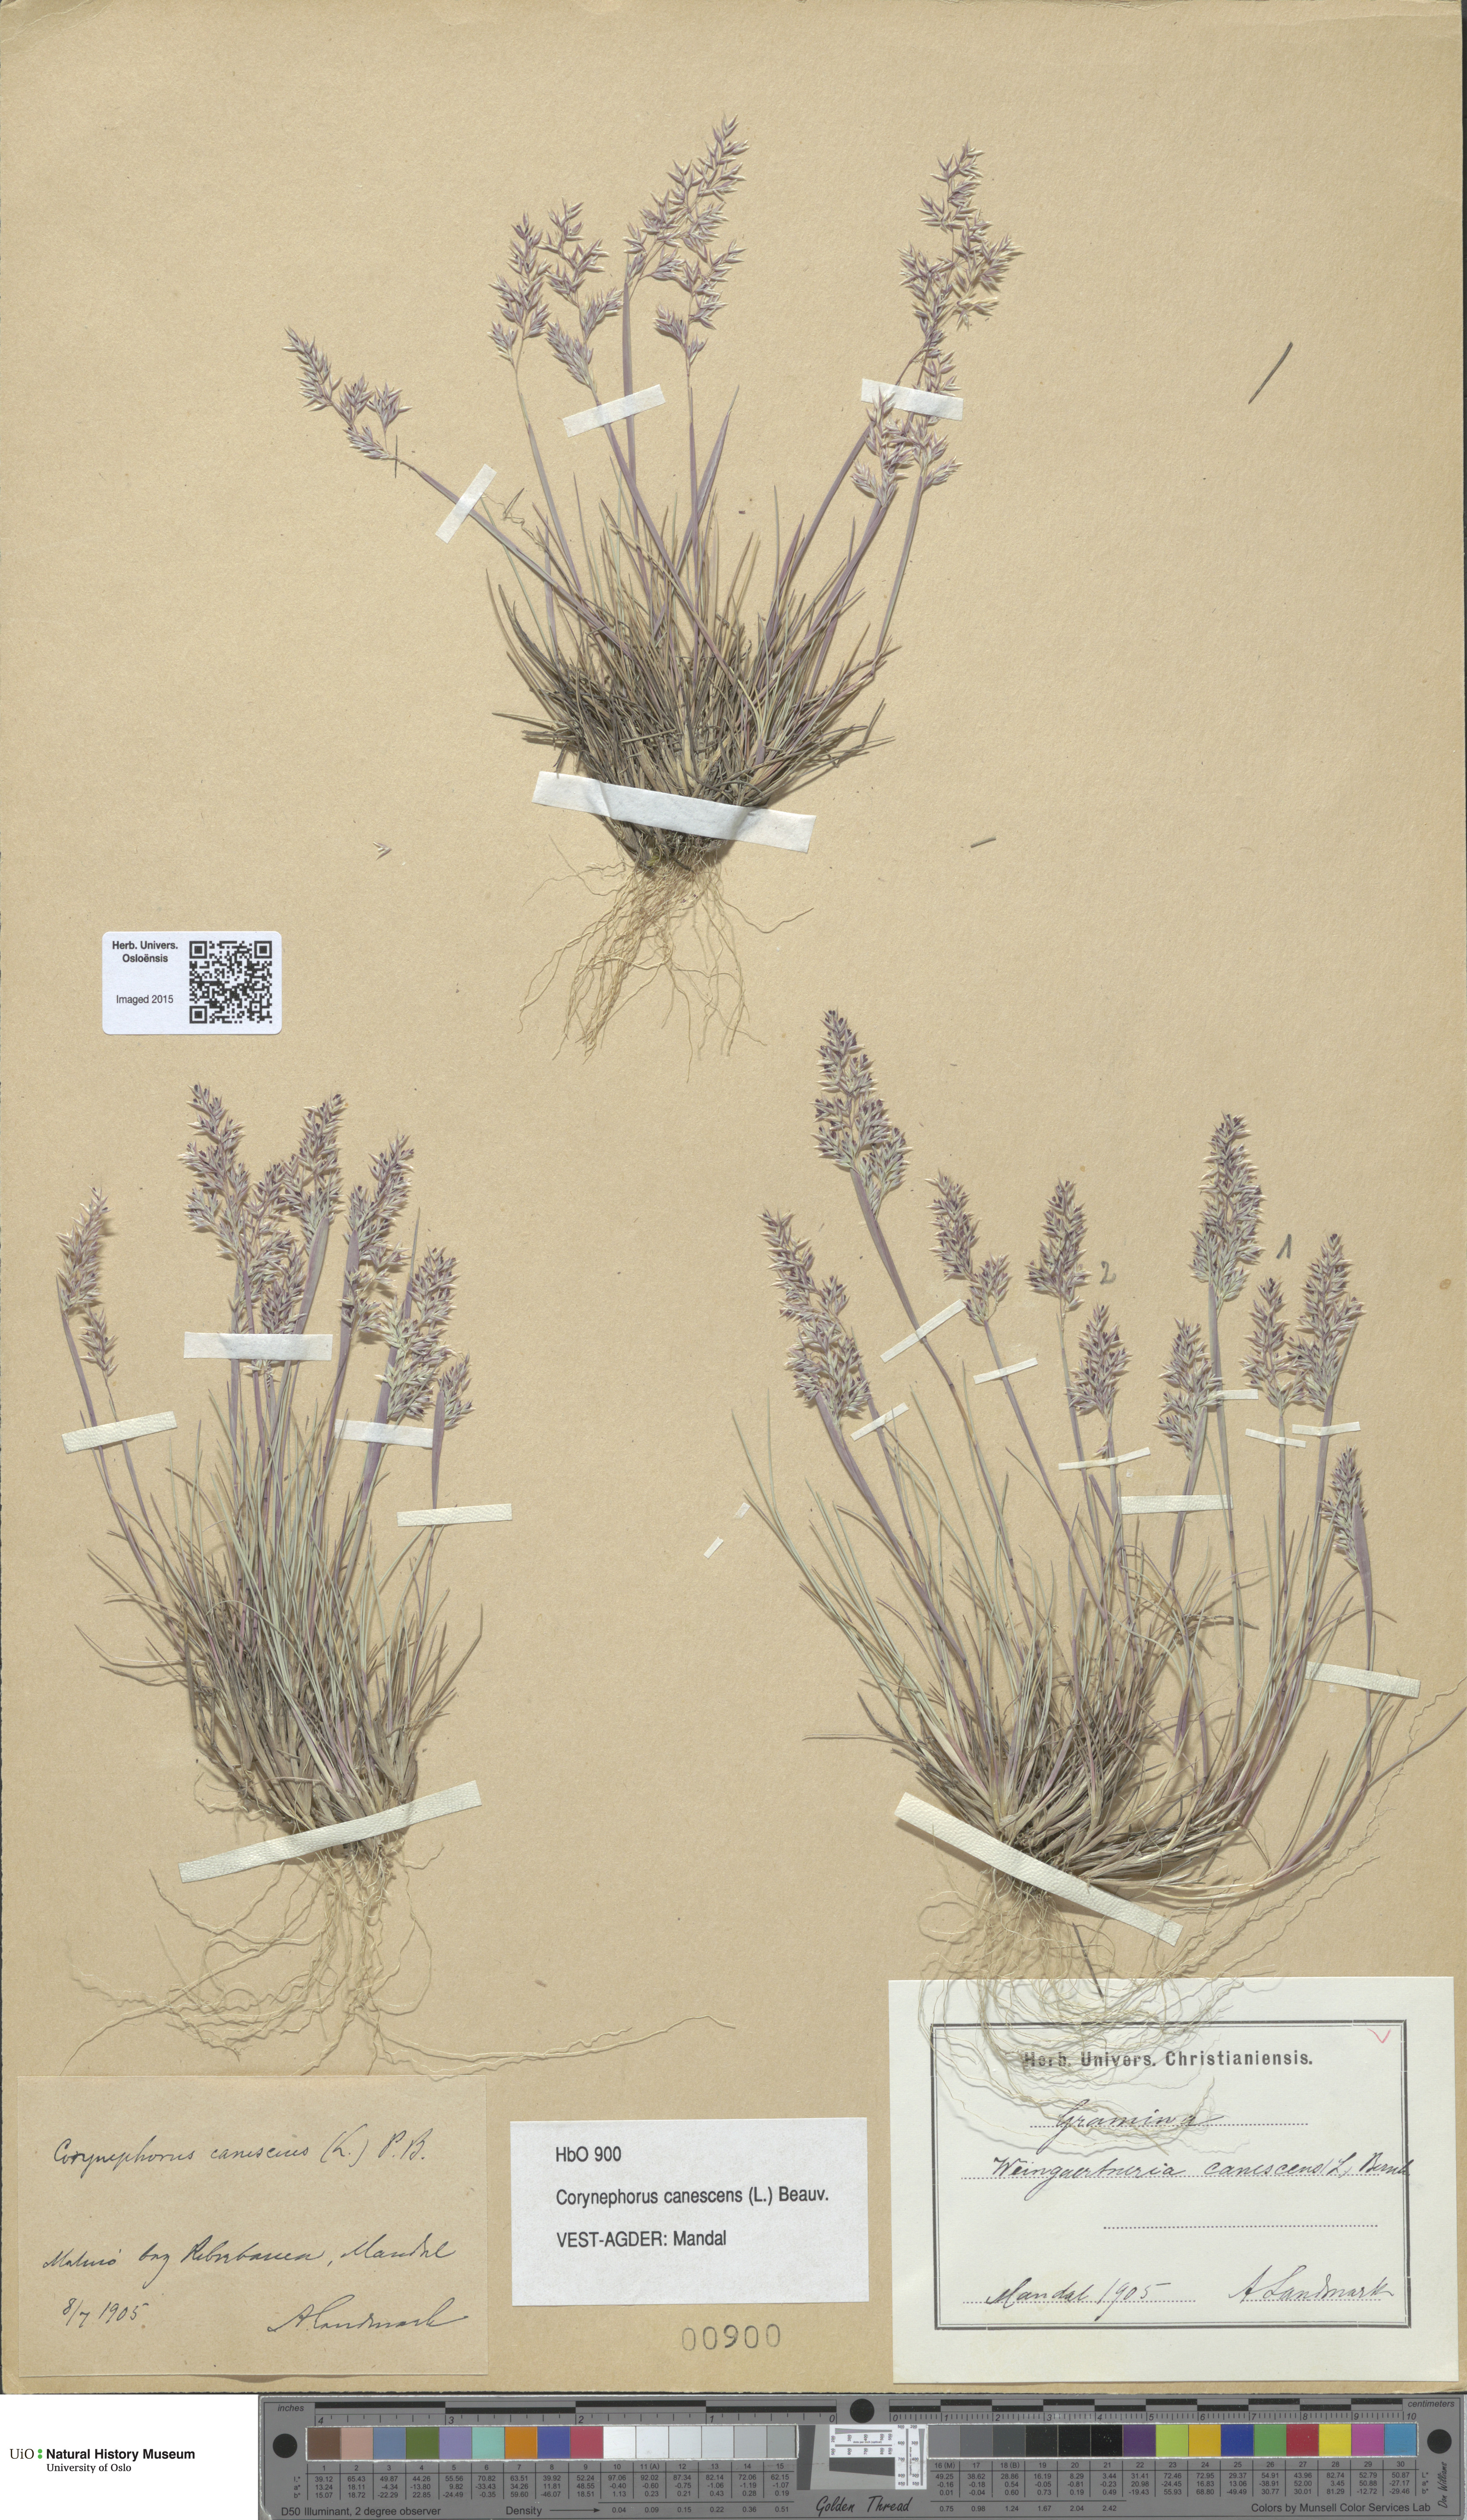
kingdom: Plantae
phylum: Tracheophyta
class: Liliopsida
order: Poales
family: Poaceae
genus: Corynephorus
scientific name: Corynephorus canescens
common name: Grey hair-grass
